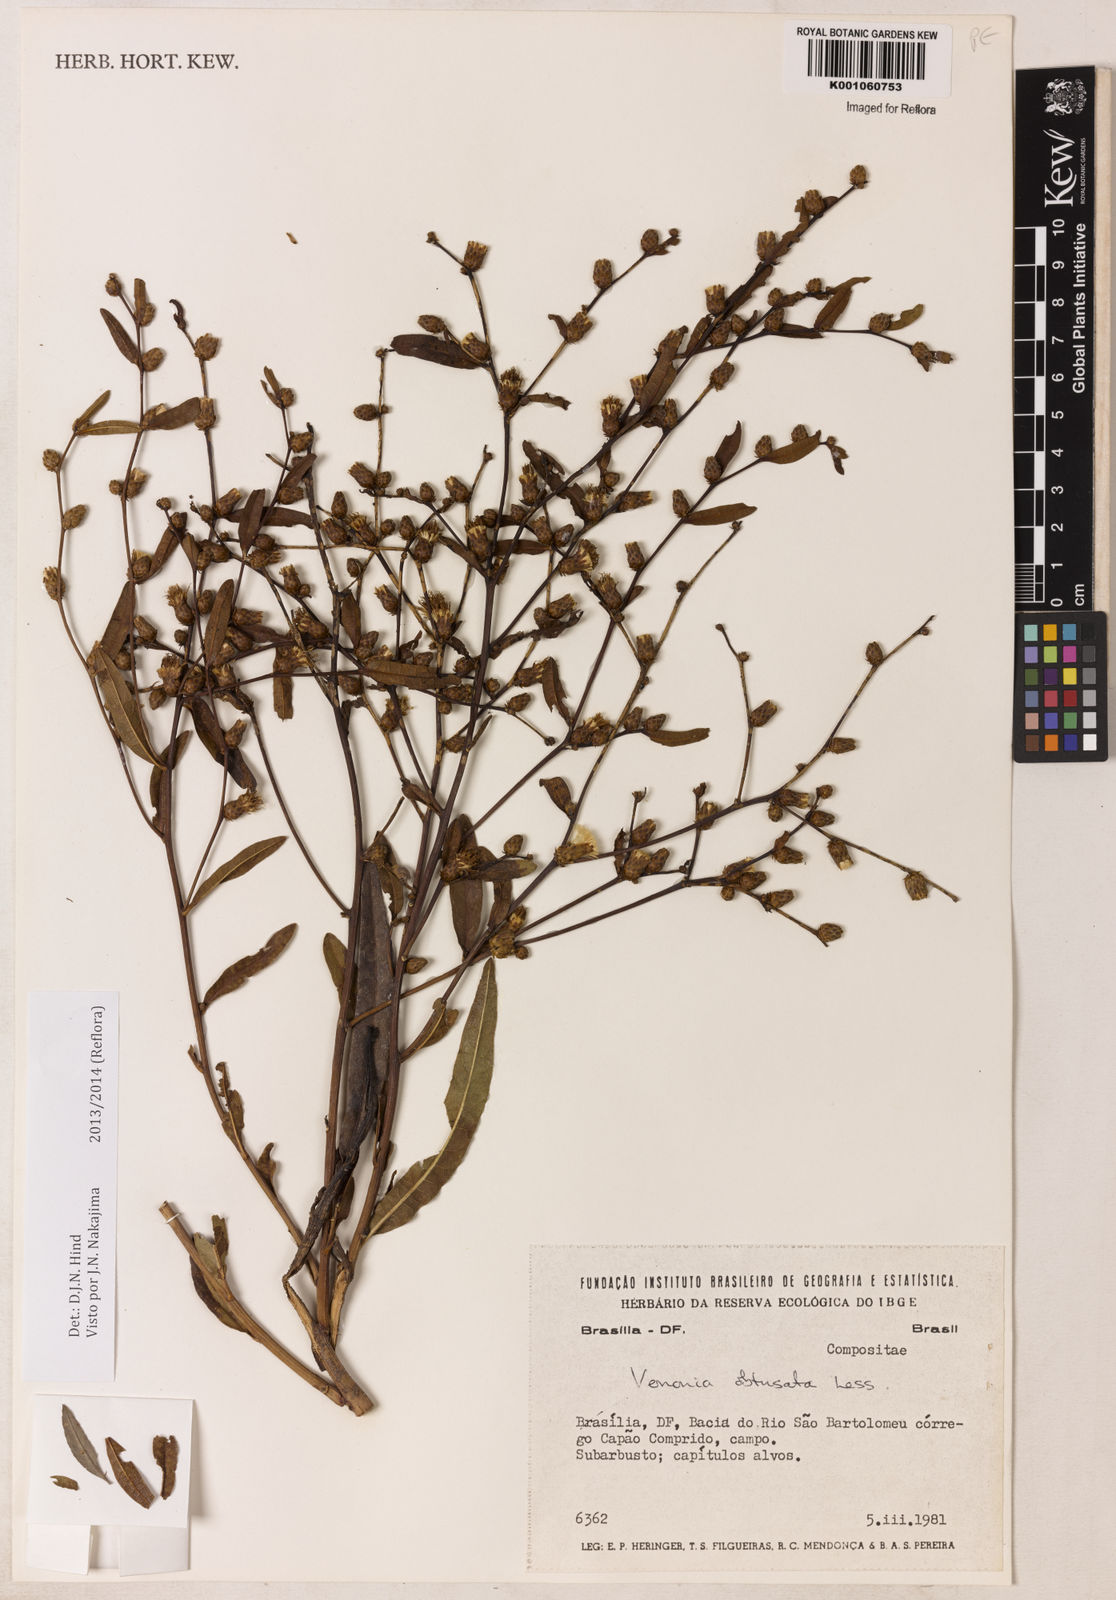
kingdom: Plantae
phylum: Tracheophyta
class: Magnoliopsida
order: Asterales
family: Asteraceae
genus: Lessingianthus
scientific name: Lessingianthus obtusatus
